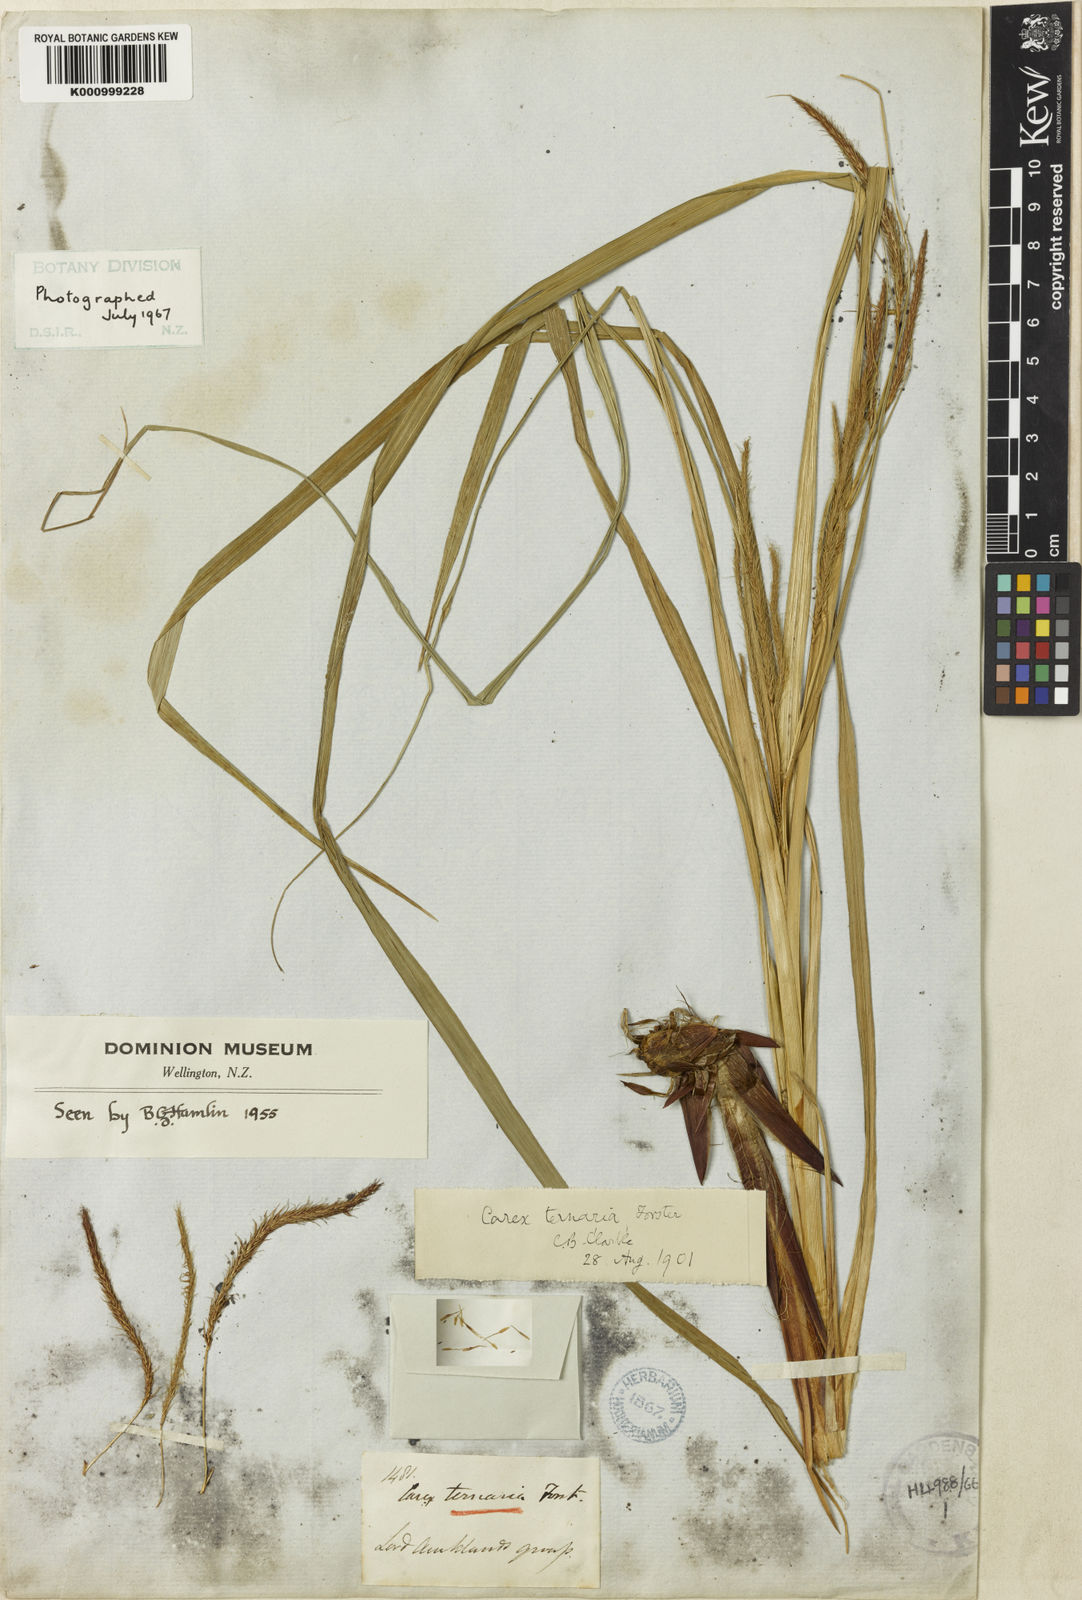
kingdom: Plantae
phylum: Tracheophyta
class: Liliopsida
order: Poales
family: Cyperaceae
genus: Carex
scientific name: Carex geminata
